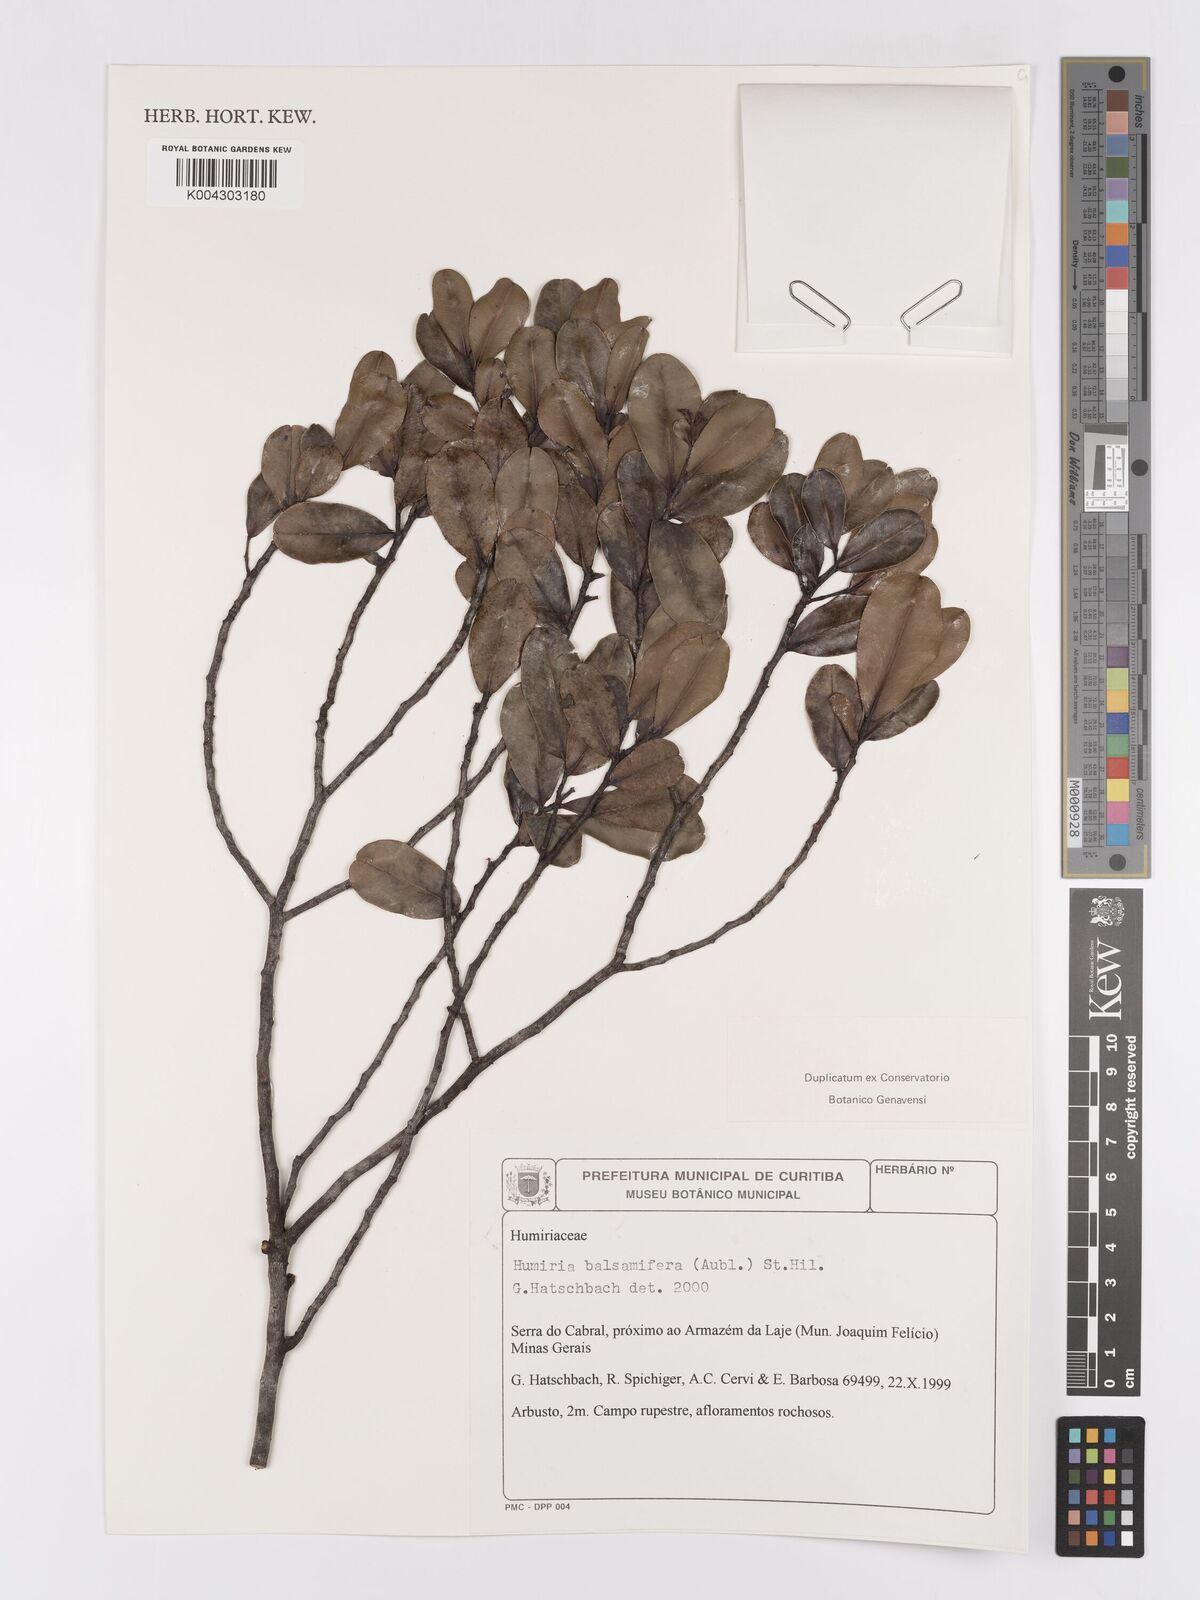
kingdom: Plantae
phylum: Tracheophyta
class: Magnoliopsida
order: Malpighiales
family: Humiriaceae
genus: Humiria
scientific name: Humiria parvifolia
